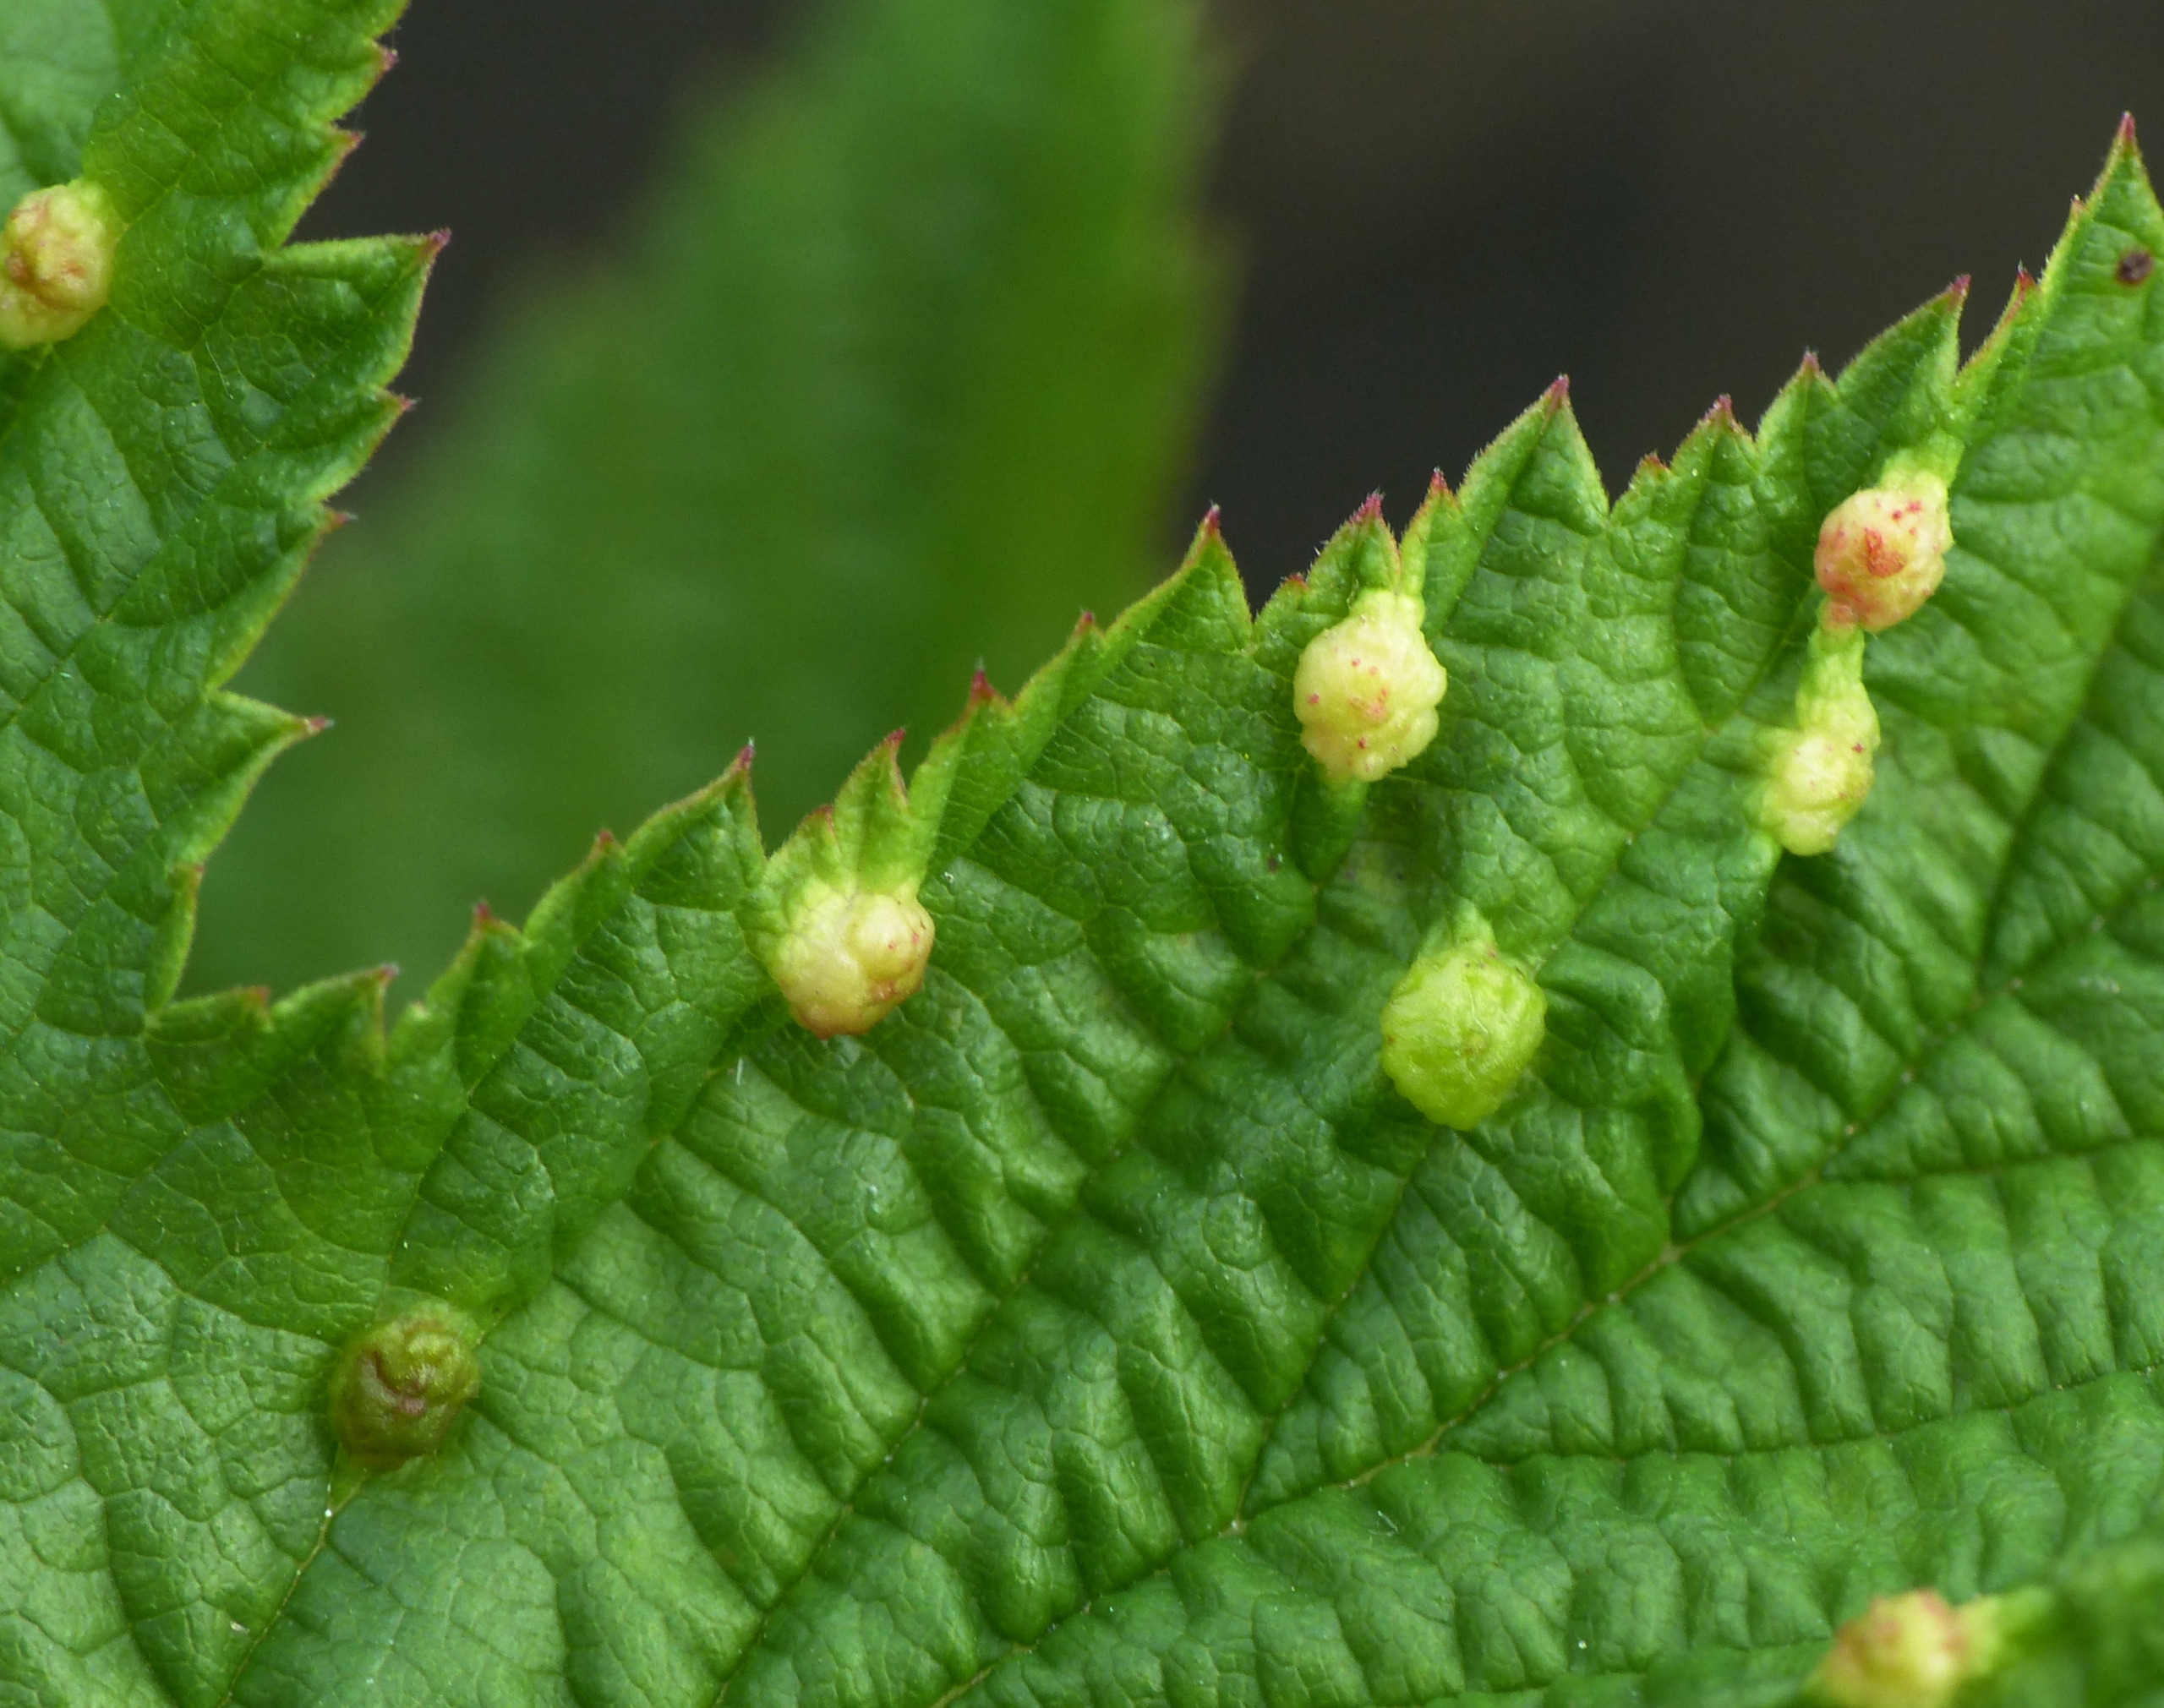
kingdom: Animalia
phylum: Arthropoda
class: Insecta
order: Diptera
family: Cecidomyiidae
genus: Dasineura
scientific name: Dasineura ulmaria
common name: Mjødurtgalmyg
